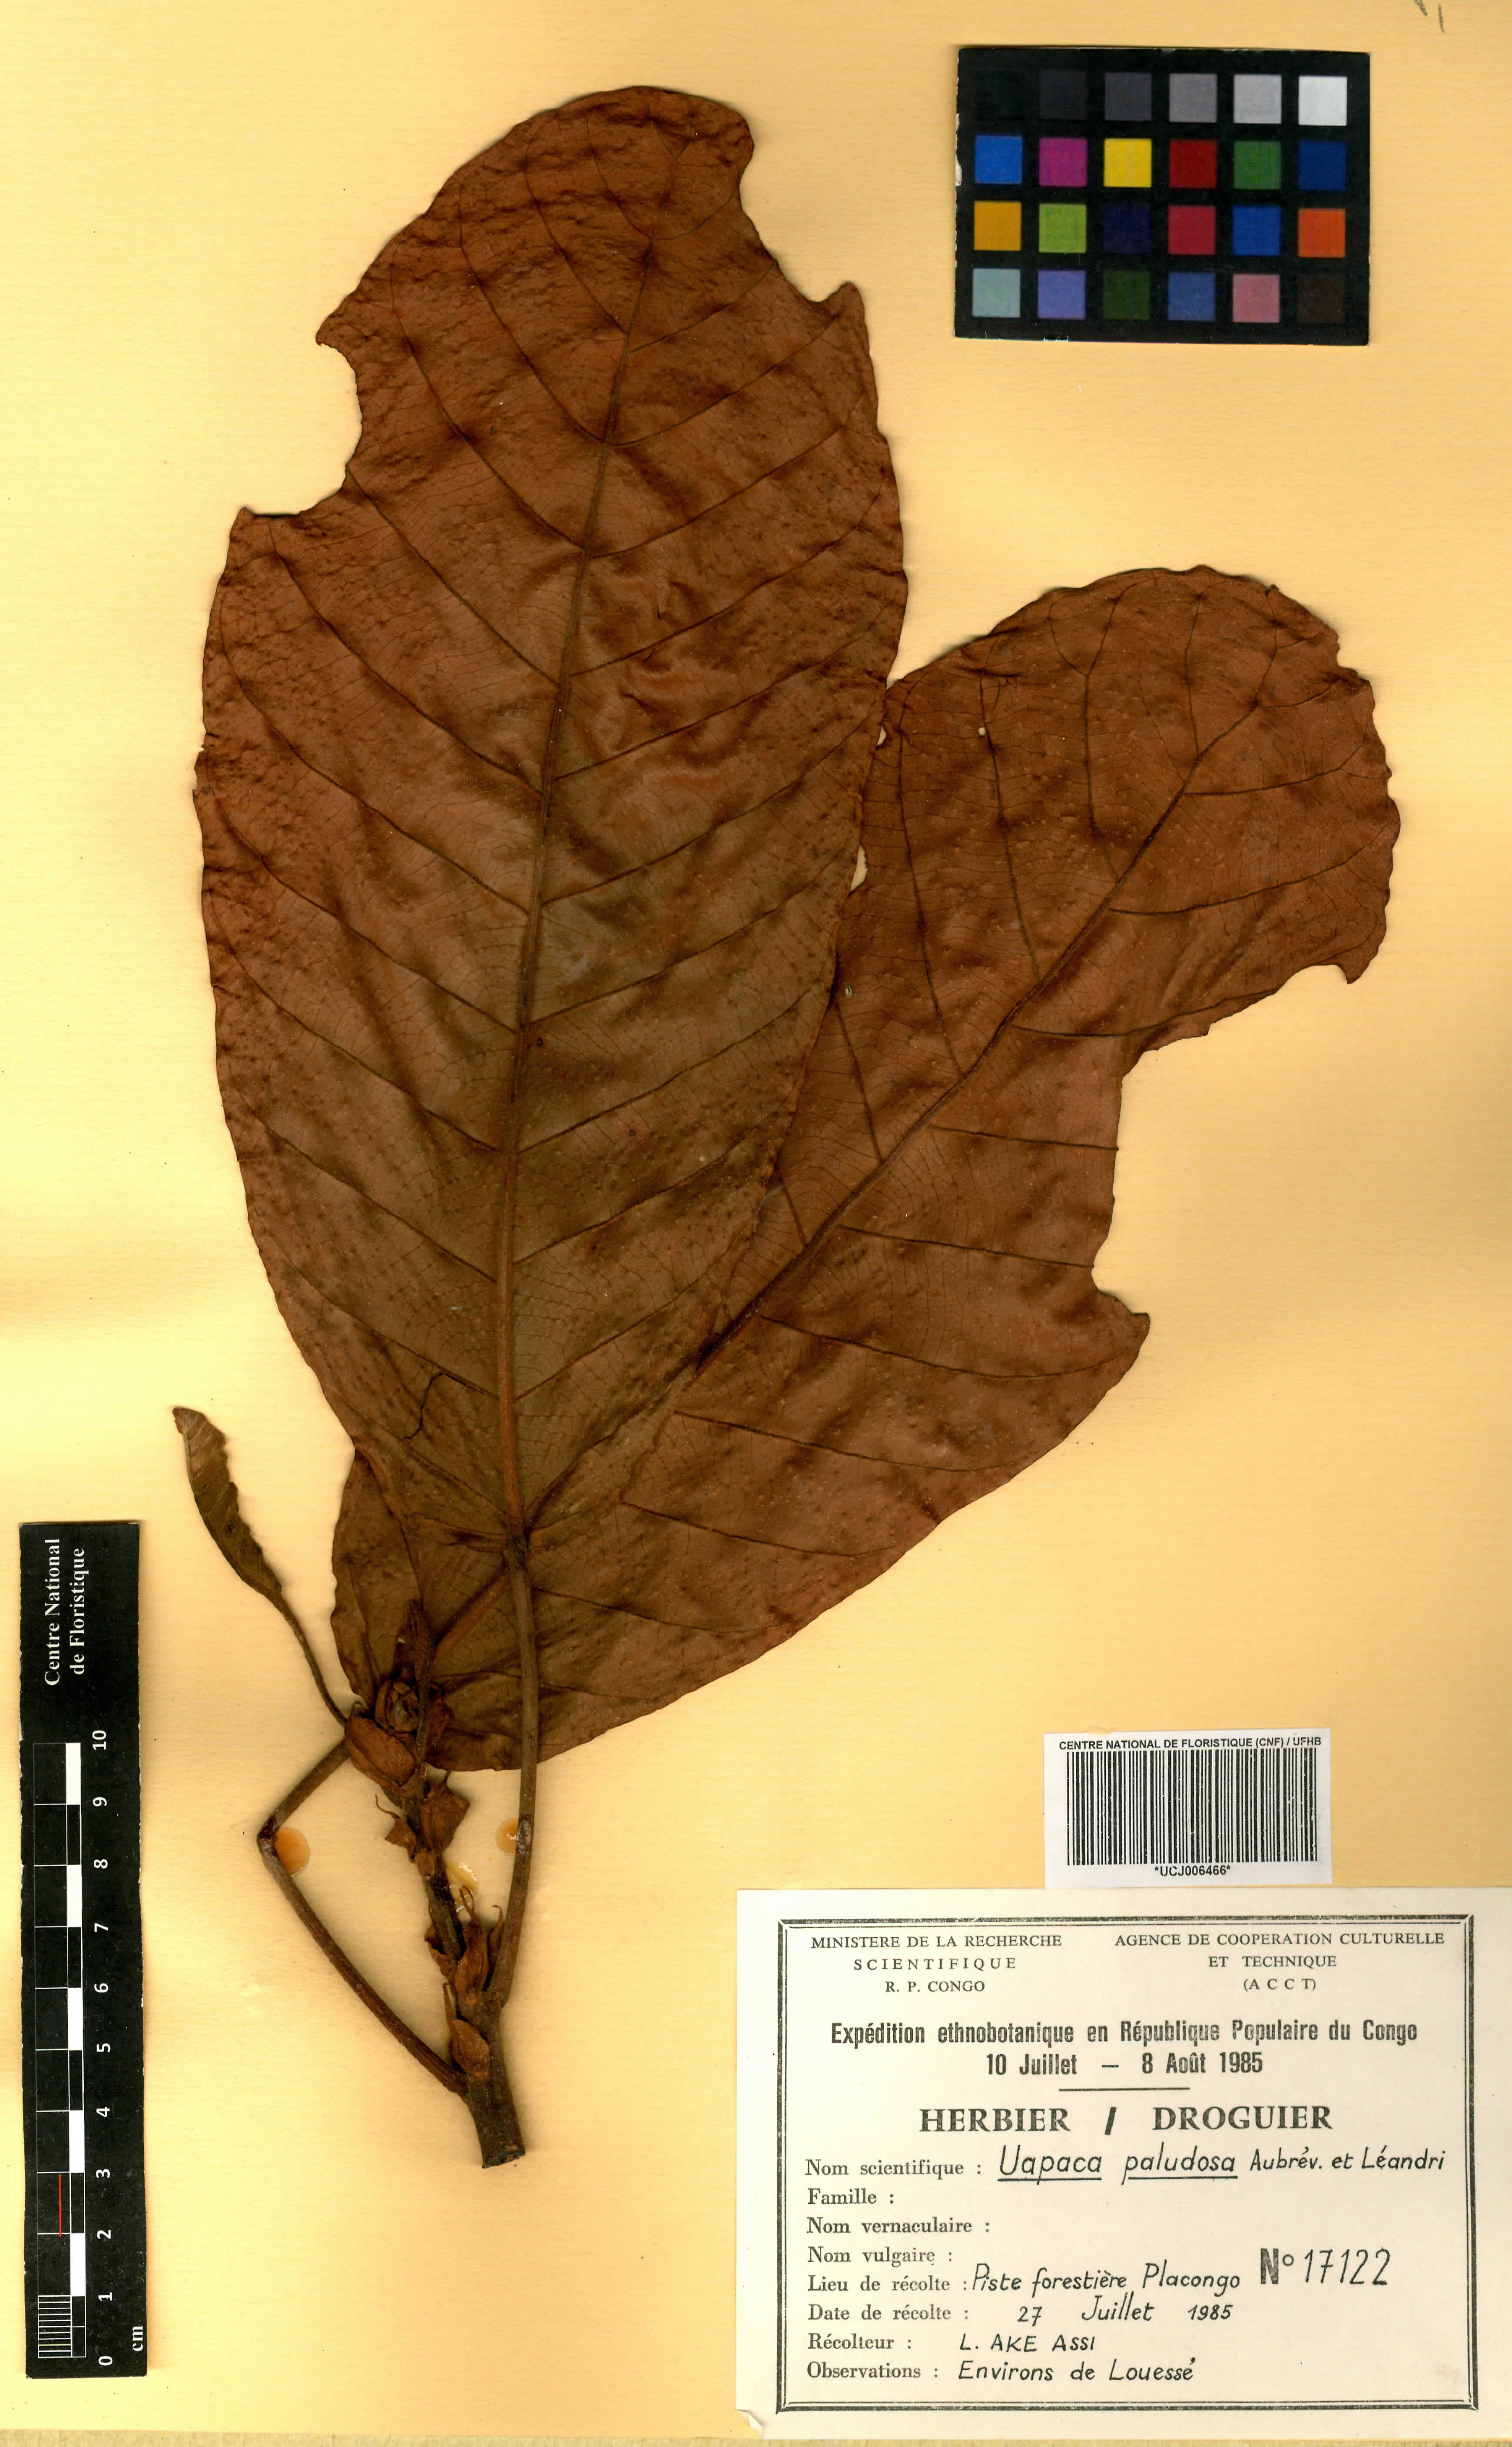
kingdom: Plantae
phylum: Tracheophyta
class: Magnoliopsida
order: Malpighiales
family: Phyllanthaceae
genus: Uapaca
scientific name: Uapaca mole
